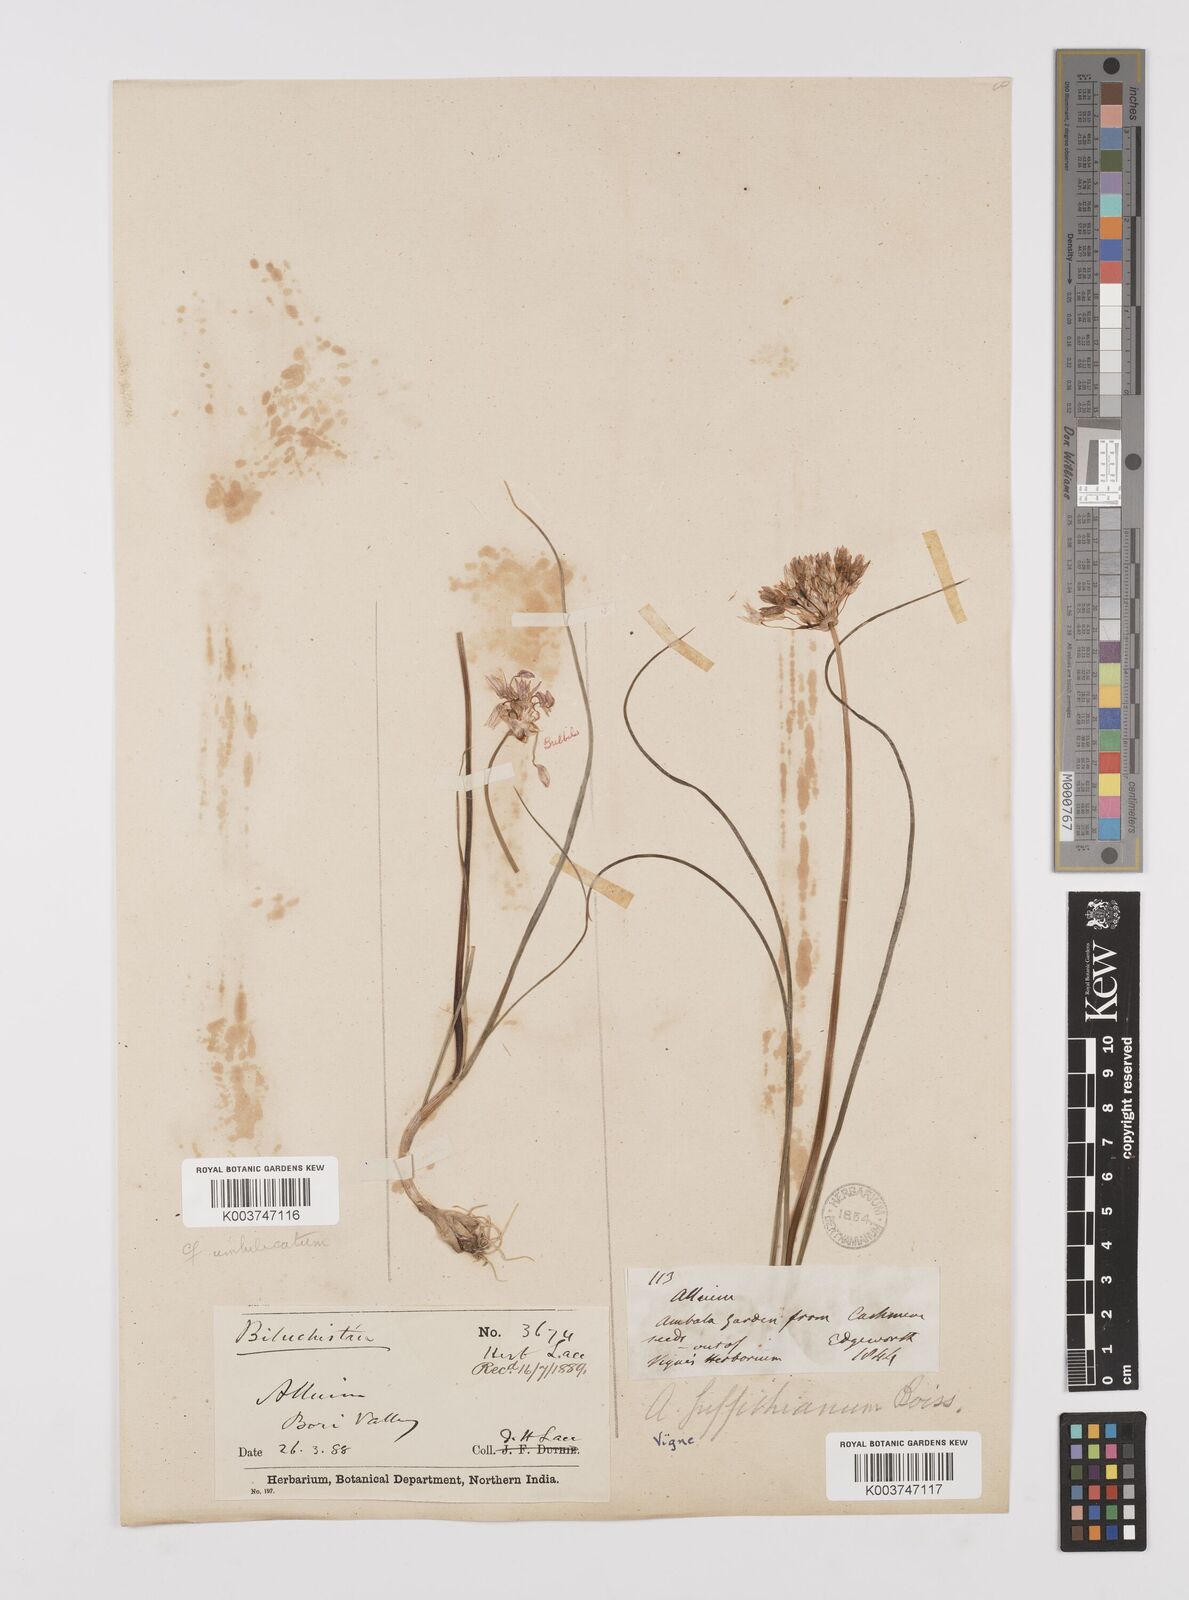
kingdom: Plantae
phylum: Tracheophyta
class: Liliopsida
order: Asparagales
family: Amaryllidaceae
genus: Allium
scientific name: Allium griffithianum
